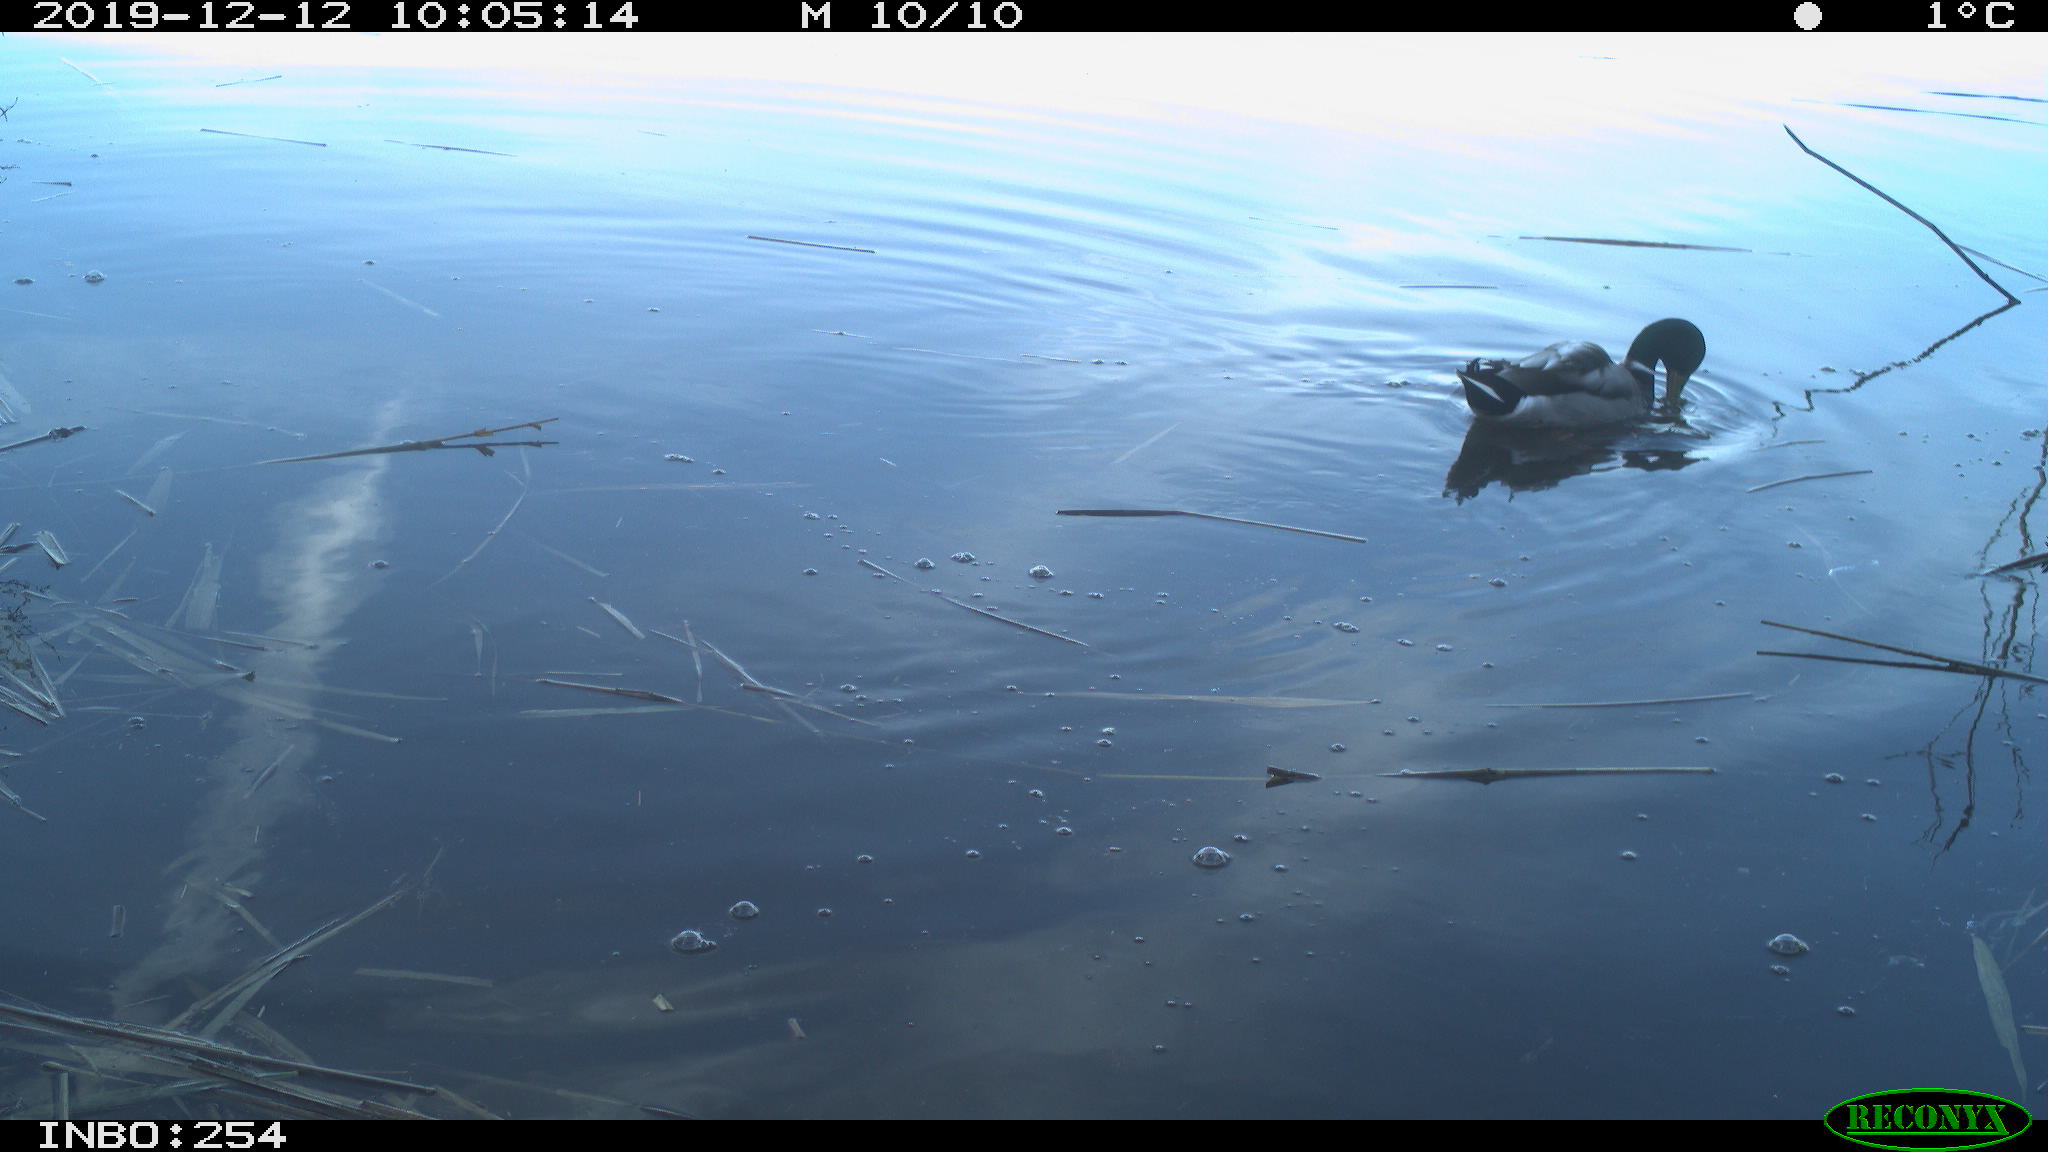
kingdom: Animalia
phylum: Chordata
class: Aves
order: Anseriformes
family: Anatidae
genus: Anas
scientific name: Anas platyrhynchos
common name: Mallard
